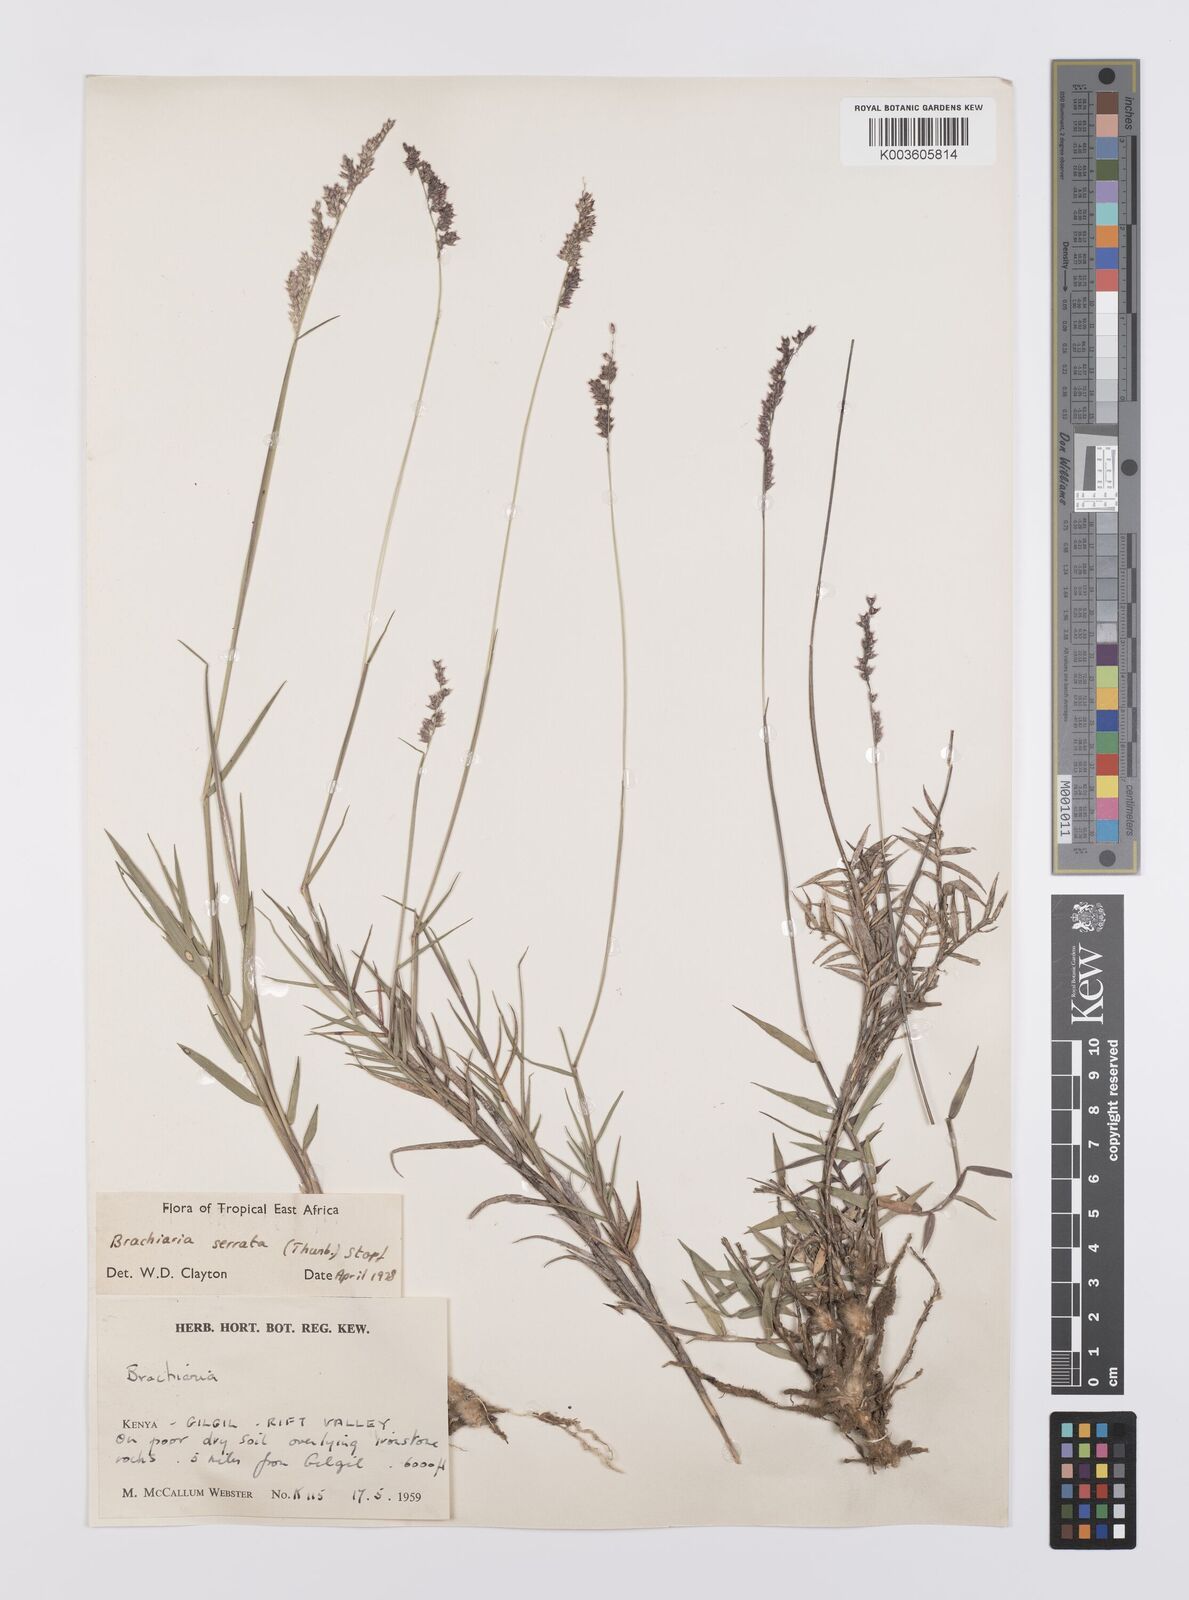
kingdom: Plantae
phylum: Tracheophyta
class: Liliopsida
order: Poales
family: Poaceae
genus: Urochloa
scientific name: Urochloa serrata
